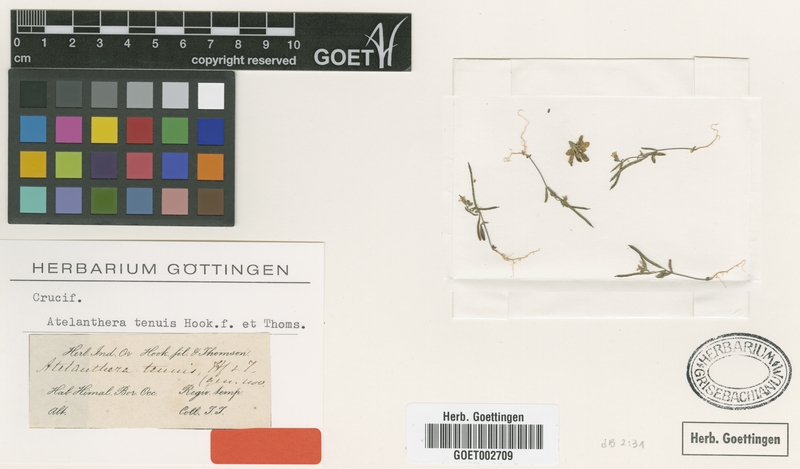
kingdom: Plantae
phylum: Tracheophyta
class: Magnoliopsida
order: Brassicales
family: Brassicaceae
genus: Atelanthera
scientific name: Atelanthera
